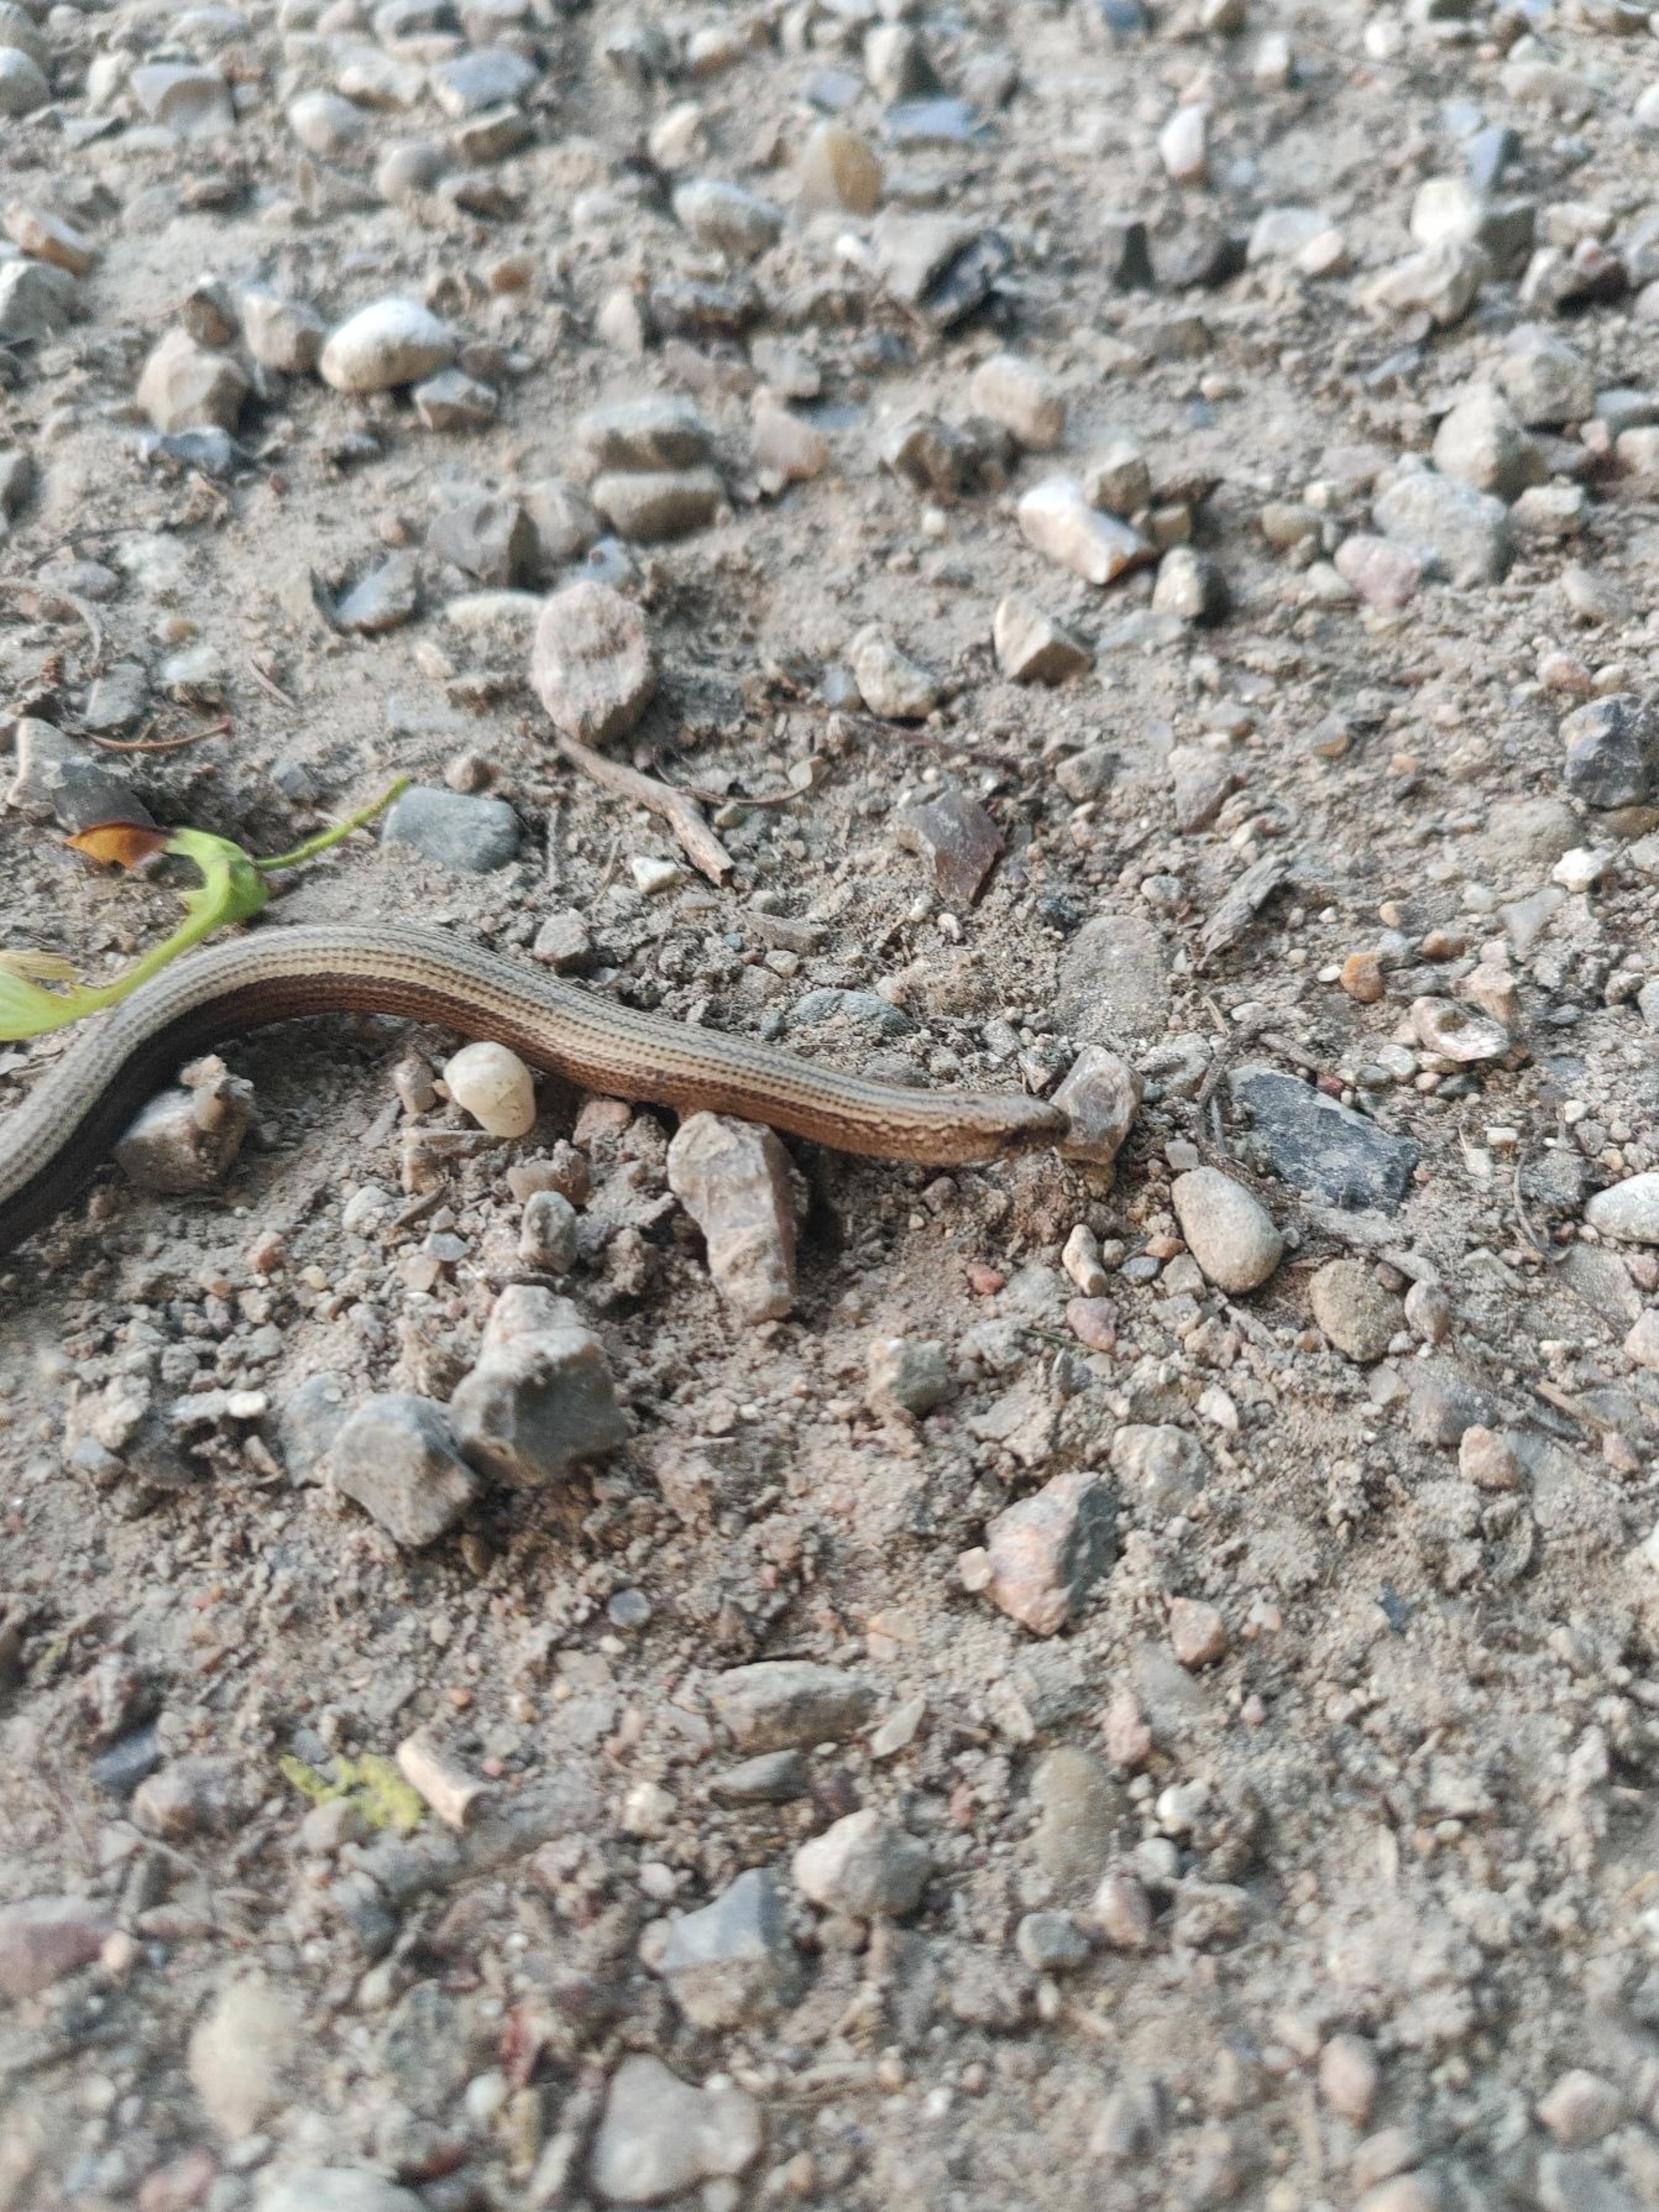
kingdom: Animalia
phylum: Chordata
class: Squamata
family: Anguidae
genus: Anguis
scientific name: Anguis fragilis
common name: Stålorm
